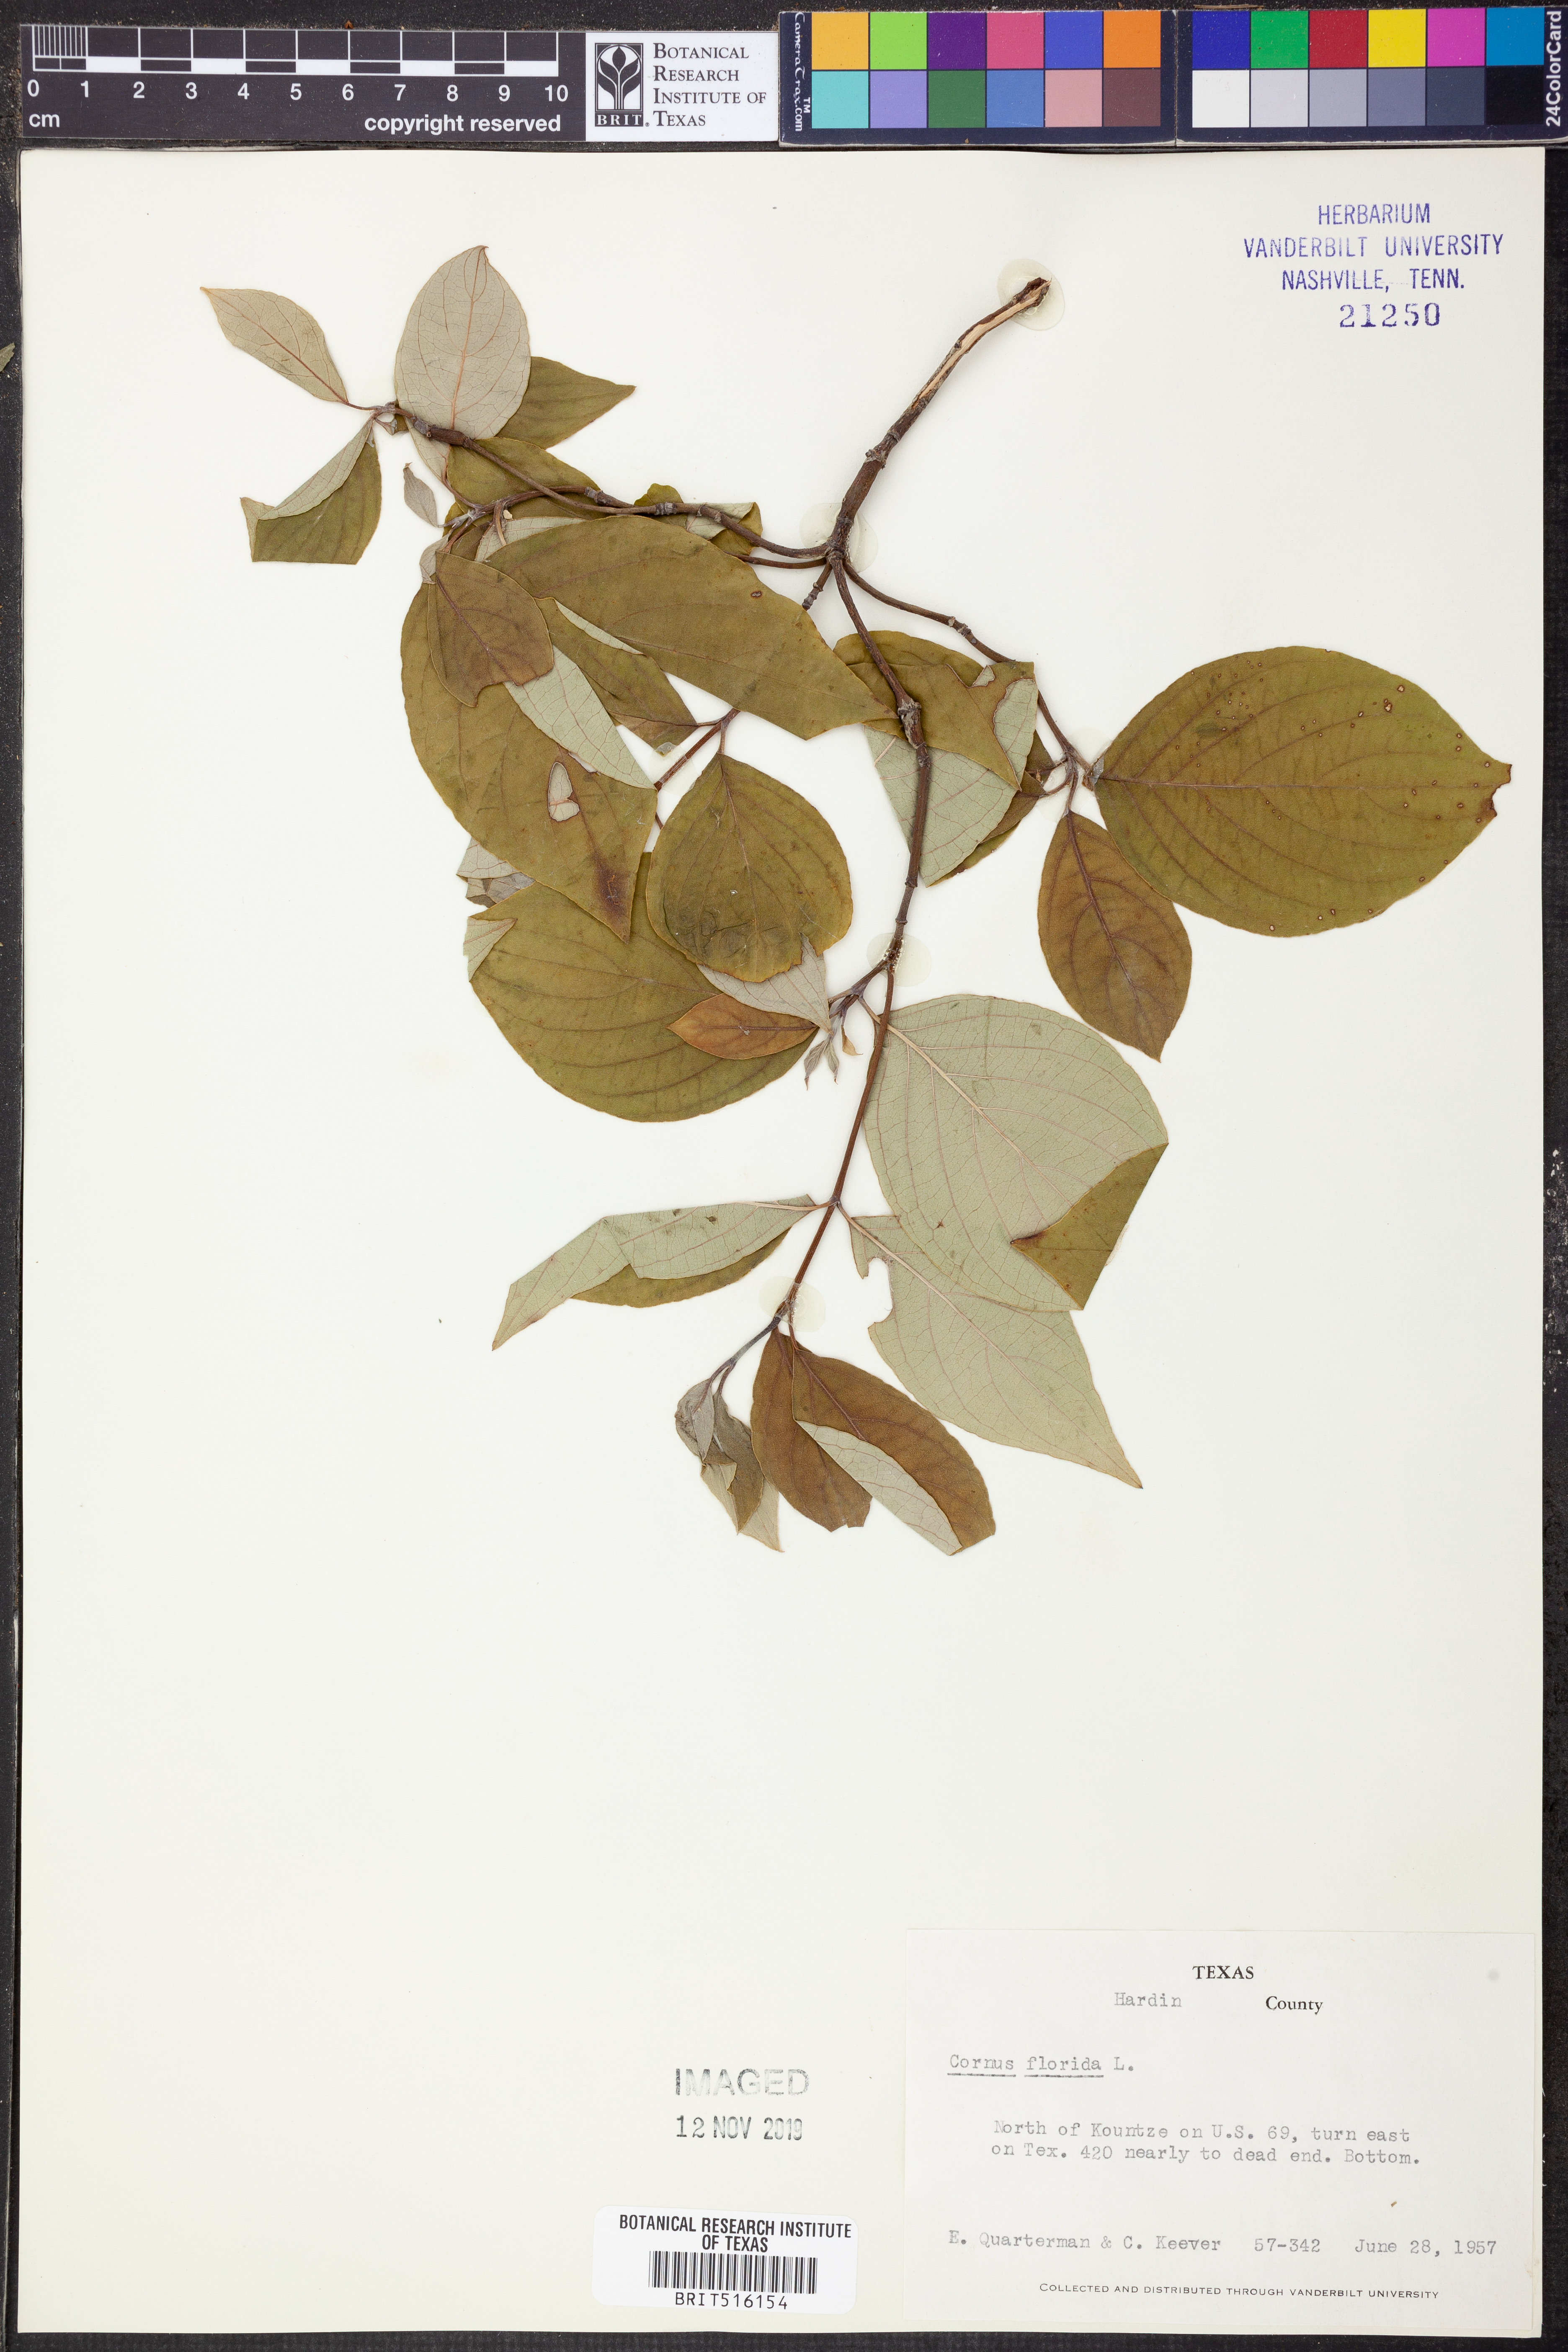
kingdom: Plantae
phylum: Tracheophyta
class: Magnoliopsida
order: Cornales
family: Cornaceae
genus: Cornus
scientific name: Cornus florida
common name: Flowering dogwood
